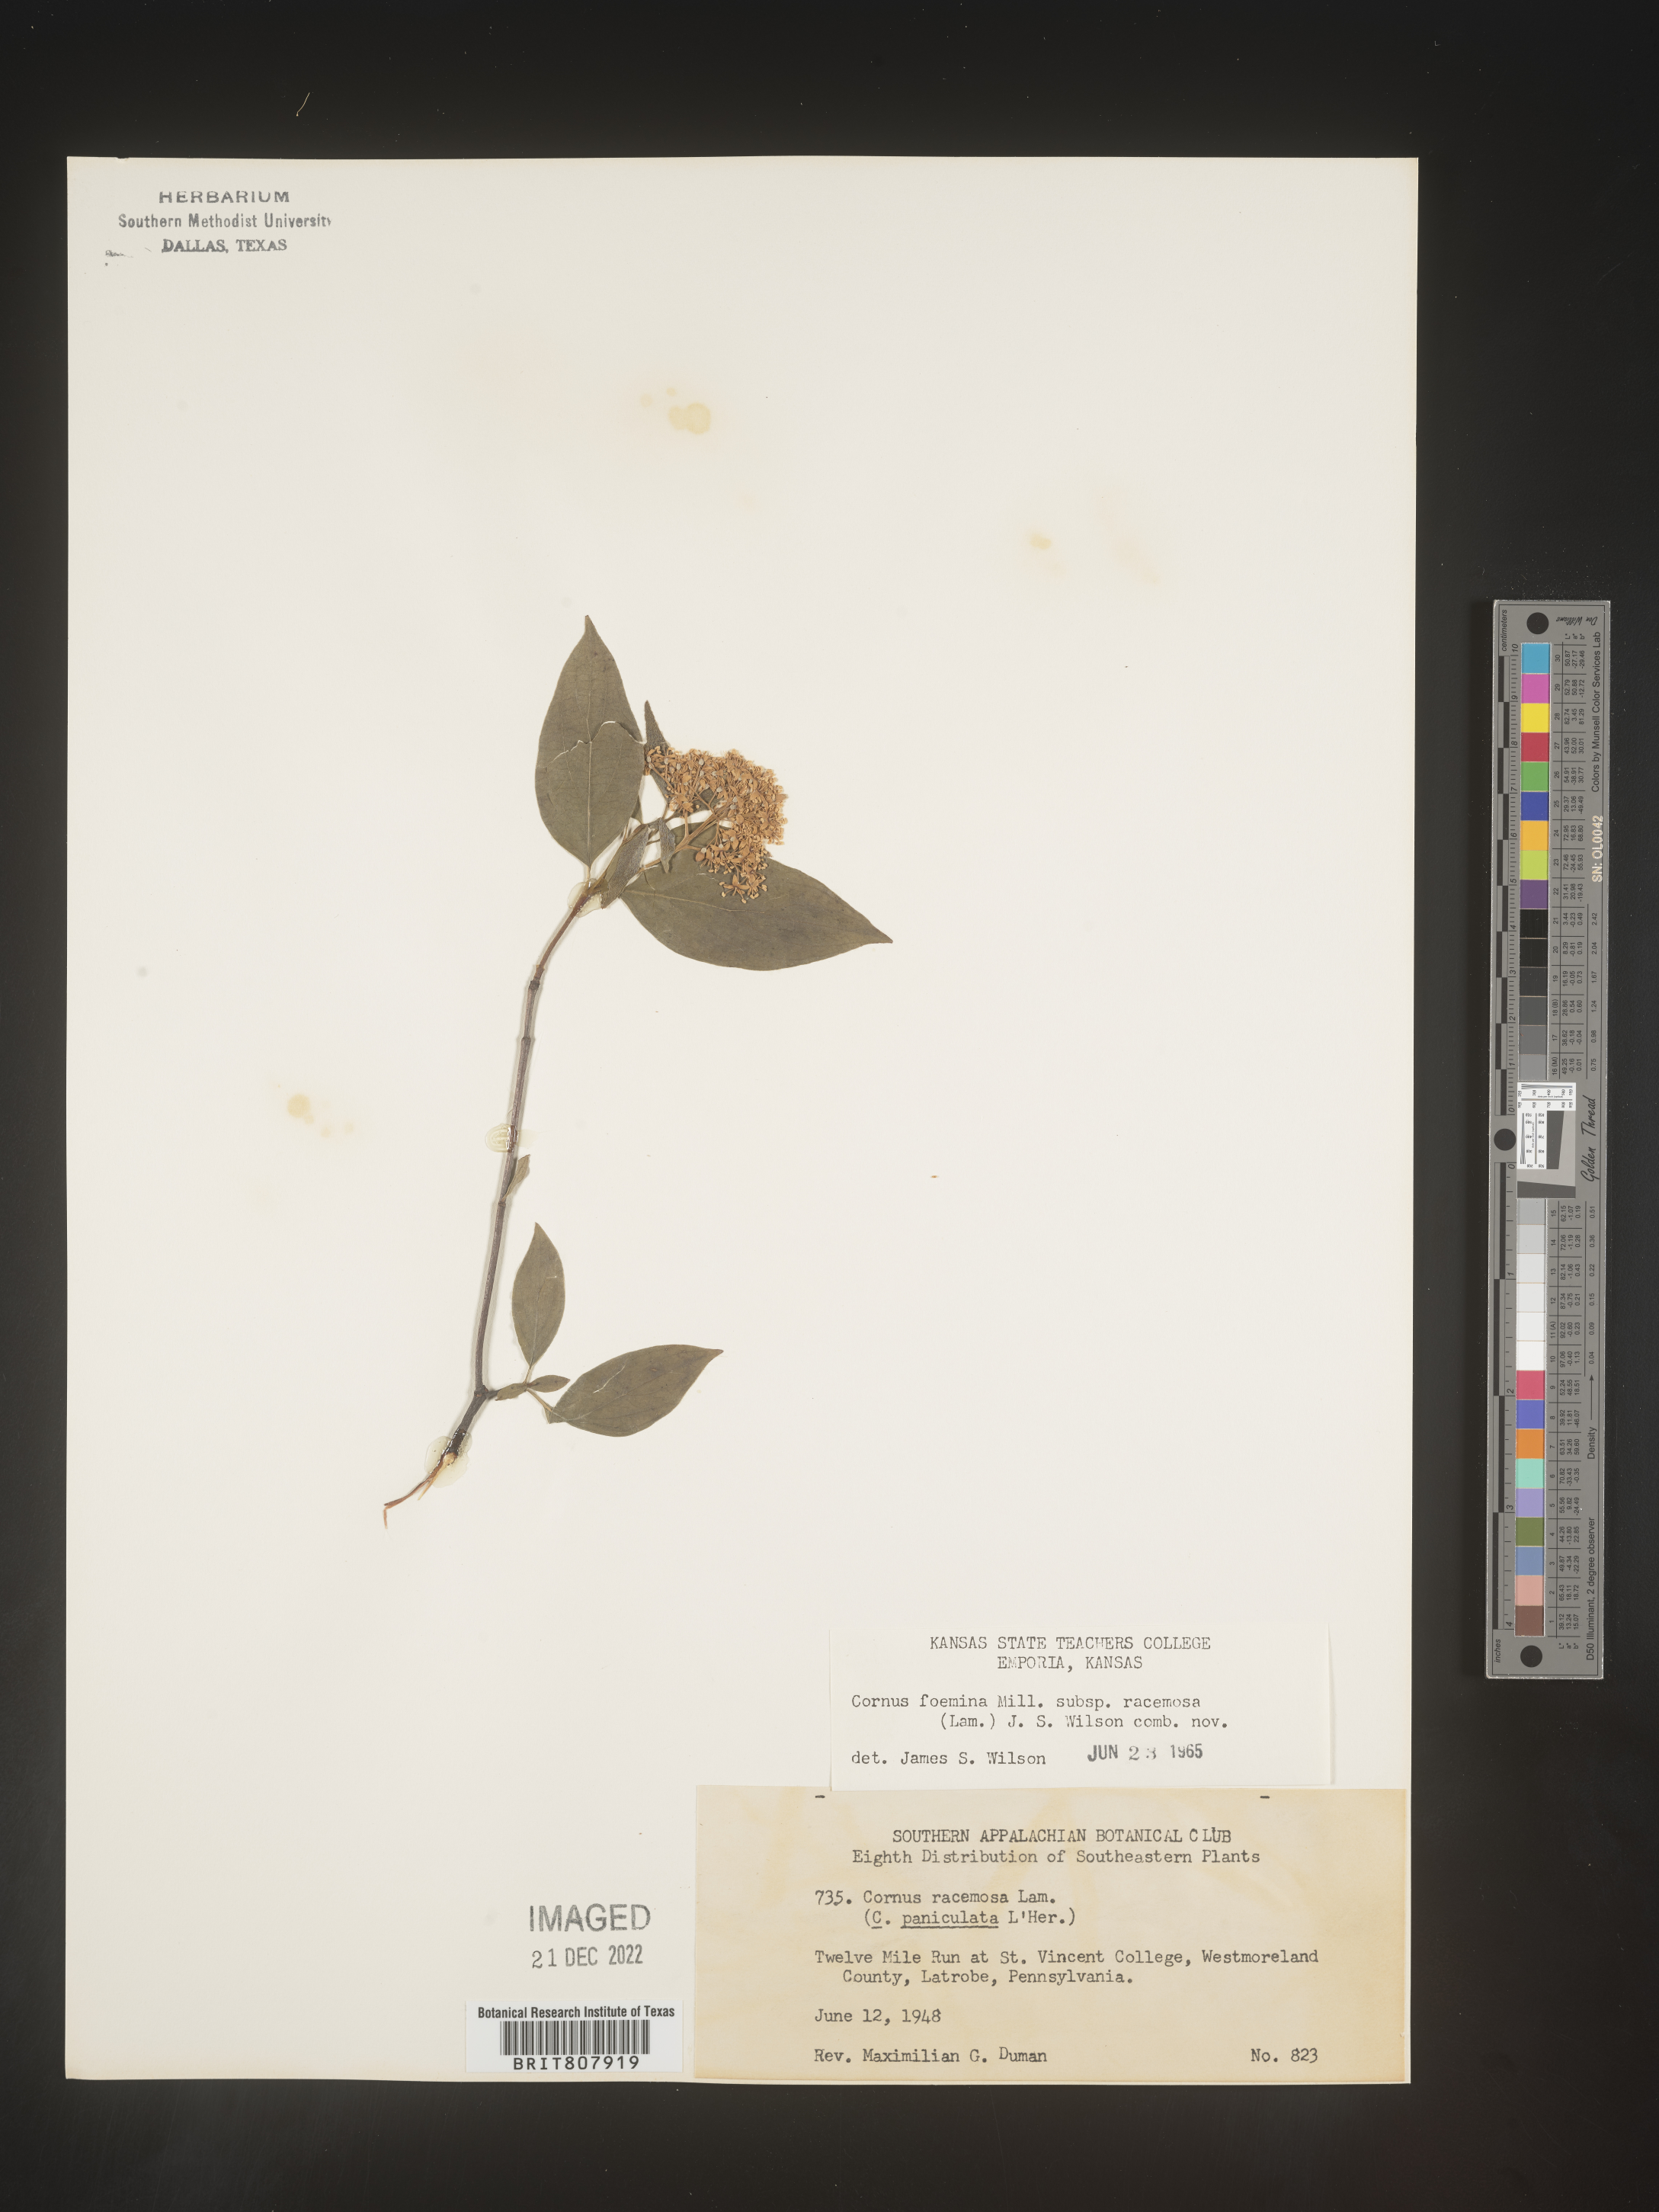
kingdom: Plantae
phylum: Tracheophyta
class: Magnoliopsida
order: Cornales
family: Cornaceae
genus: Cornus
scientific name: Cornus racemosa
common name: Panicled dogwood
